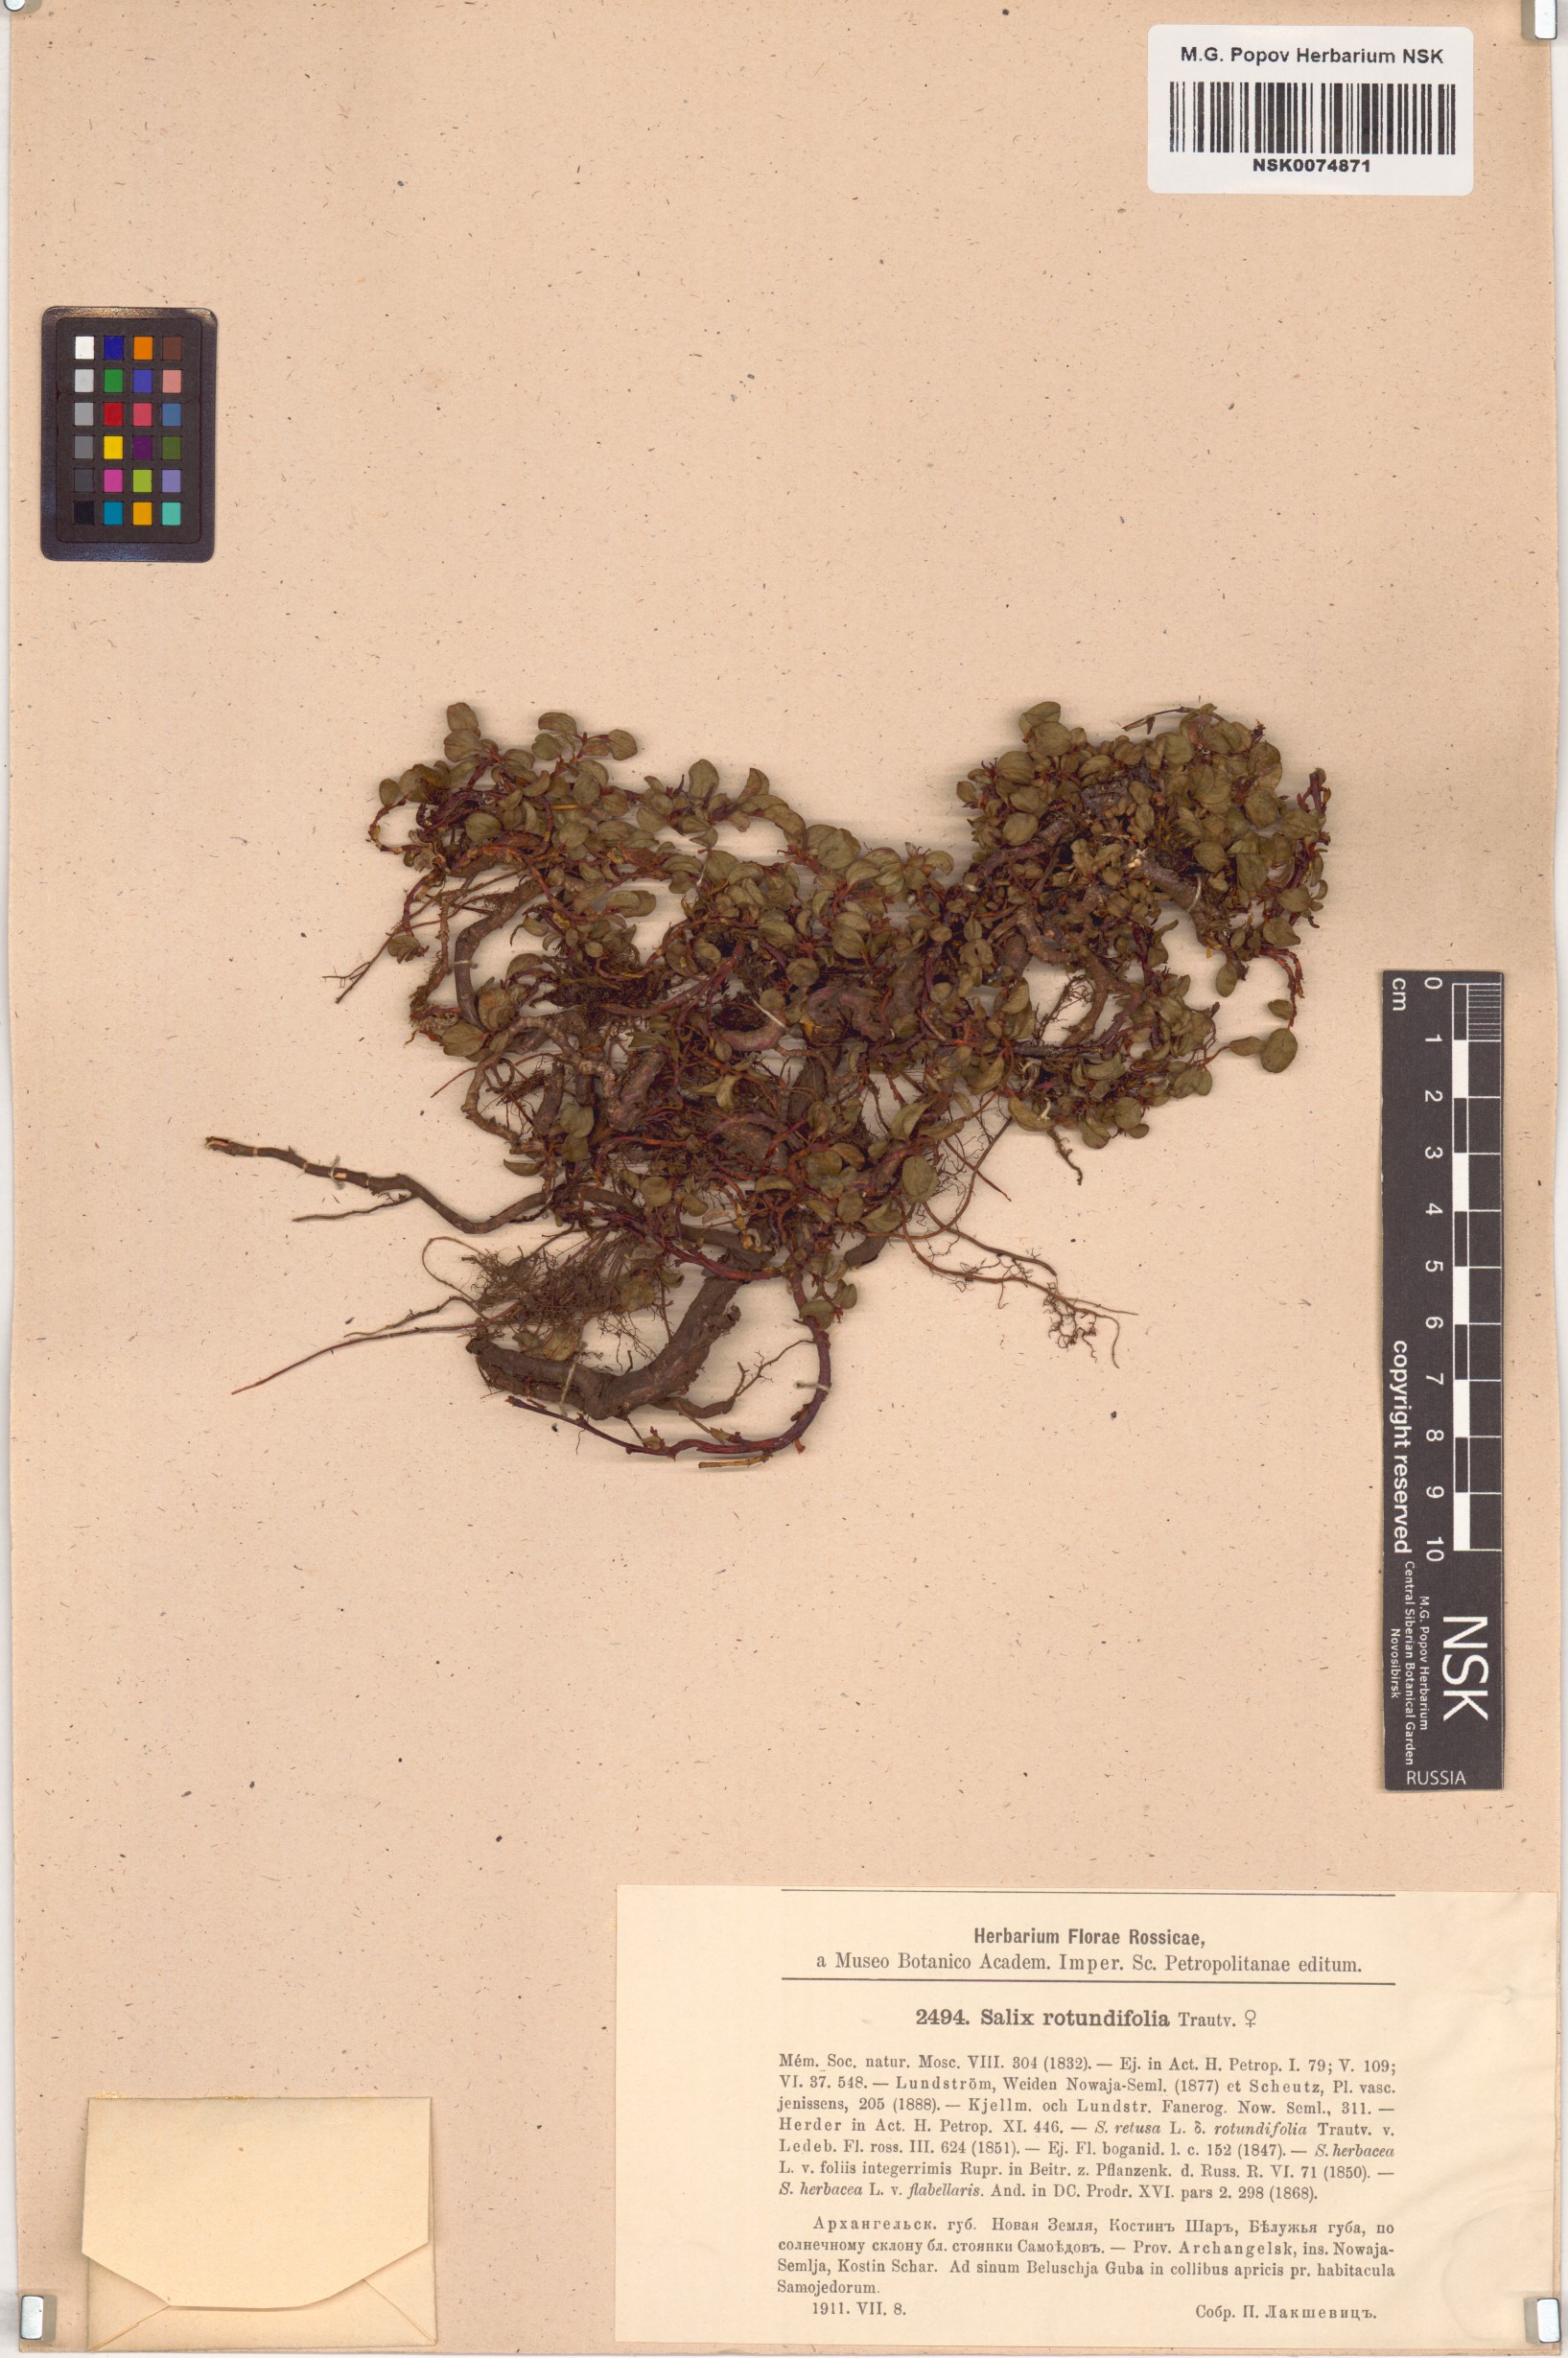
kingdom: Plantae
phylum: Tracheophyta
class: Magnoliopsida
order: Malpighiales
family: Salicaceae
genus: Salix
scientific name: Salix rotundifolia
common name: Least willow
